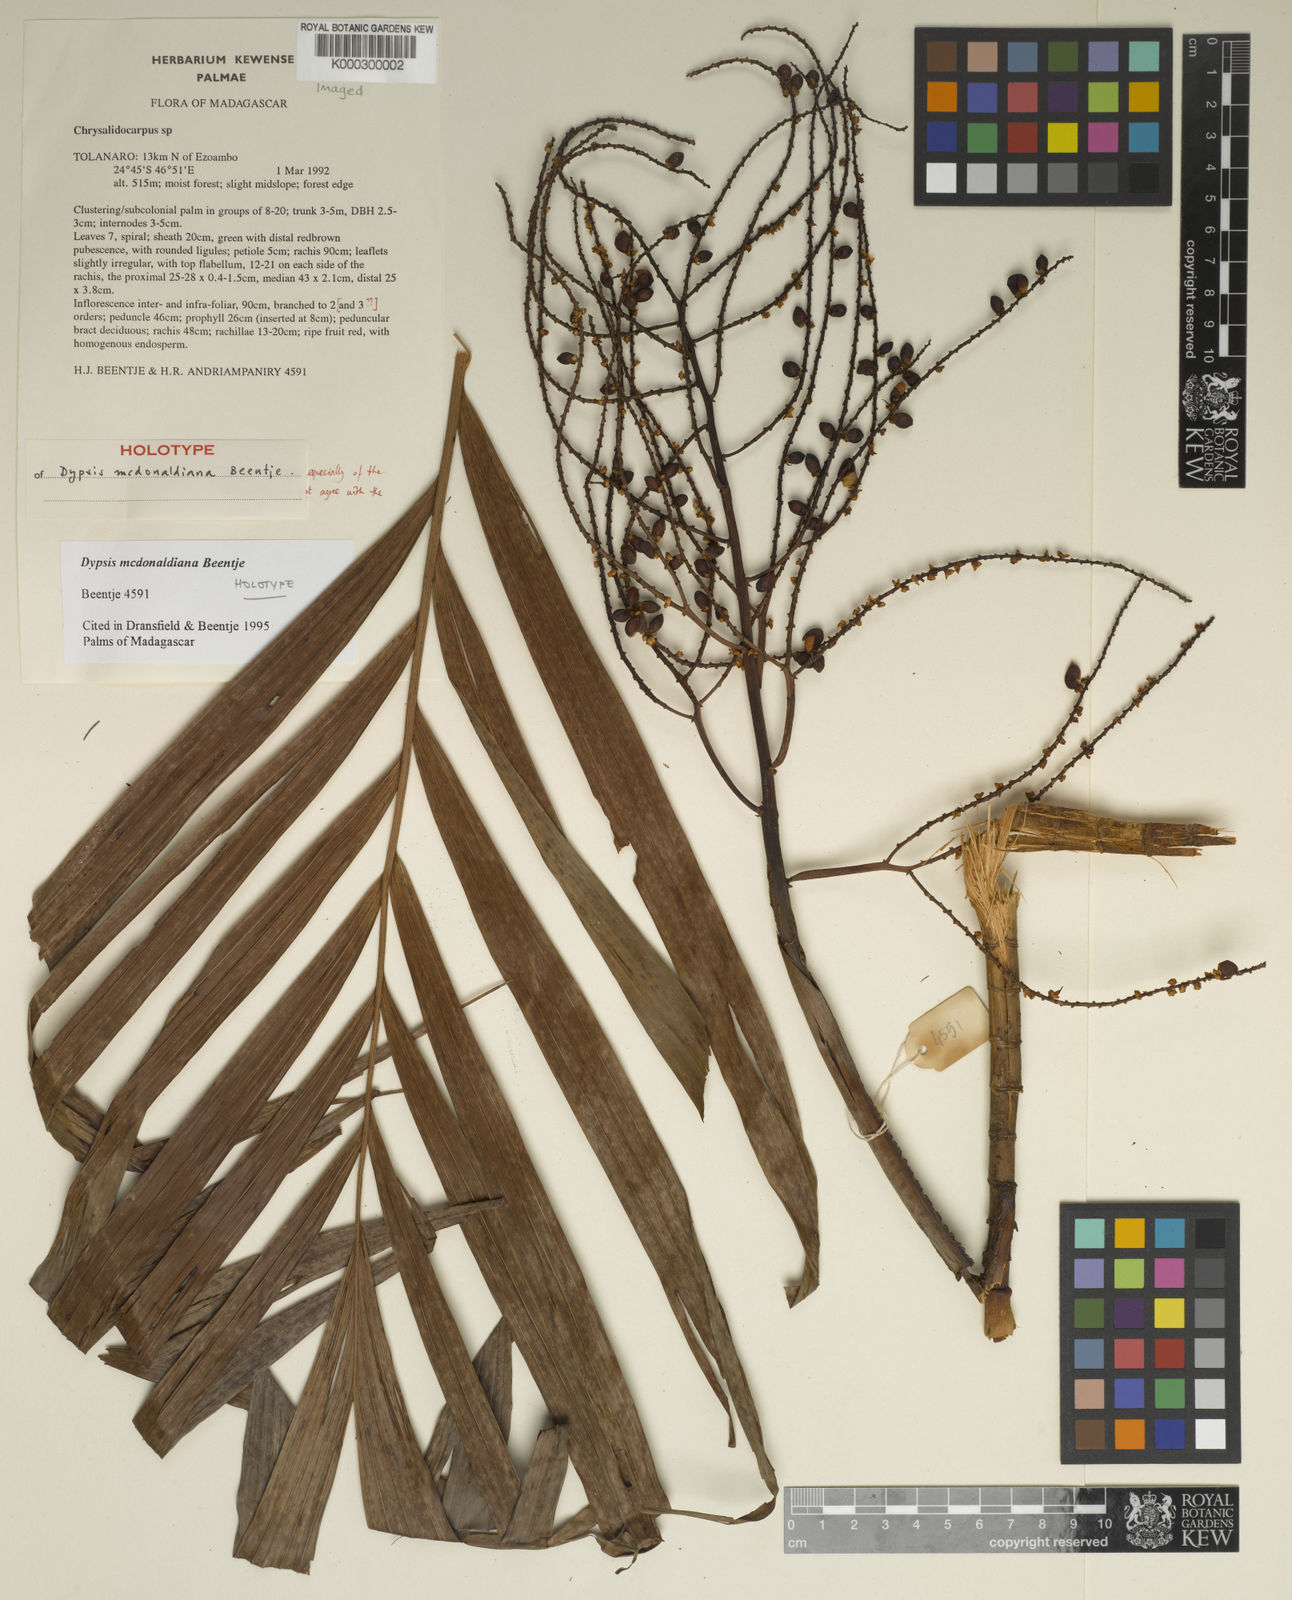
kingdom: Plantae
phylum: Tracheophyta
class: Liliopsida
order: Arecales
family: Arecaceae
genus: Dypsis
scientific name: Dypsis mcdonaldiana
